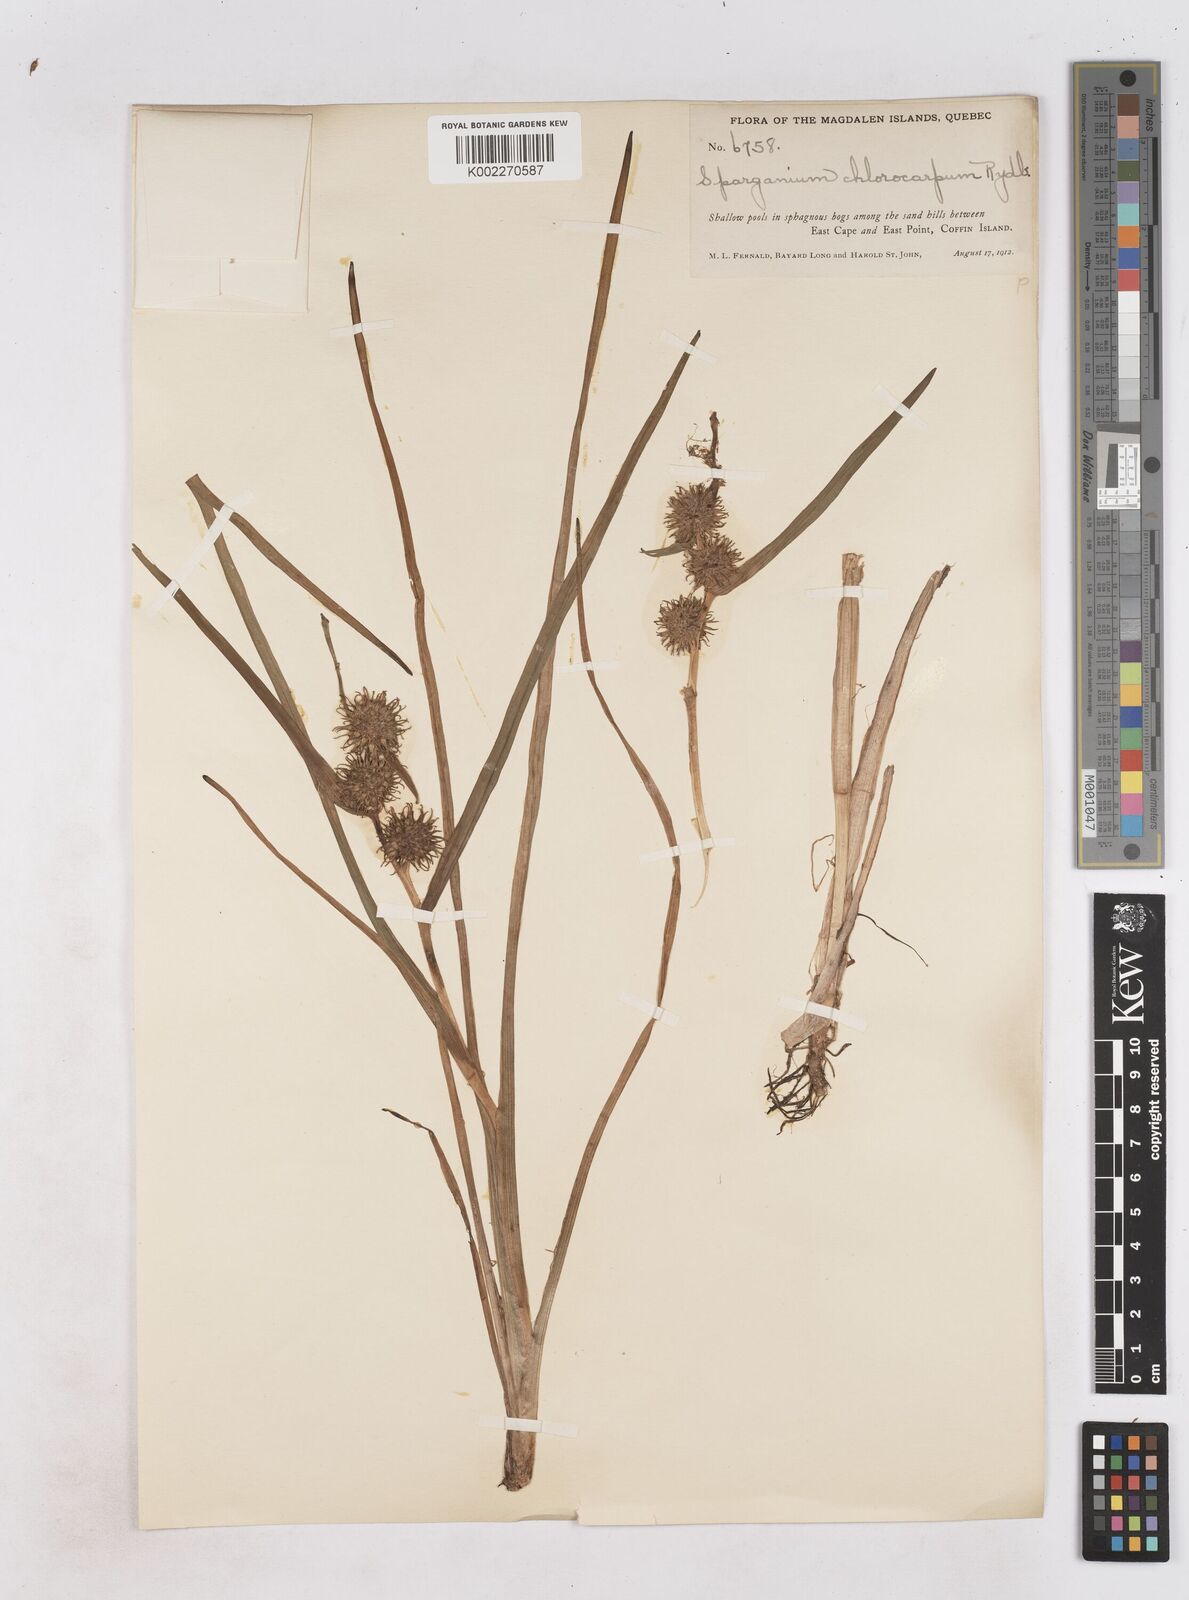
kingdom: Plantae
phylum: Tracheophyta
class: Liliopsida
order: Poales
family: Typhaceae
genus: Sparganium
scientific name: Sparganium emersum
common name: Unbranched bur-reed
